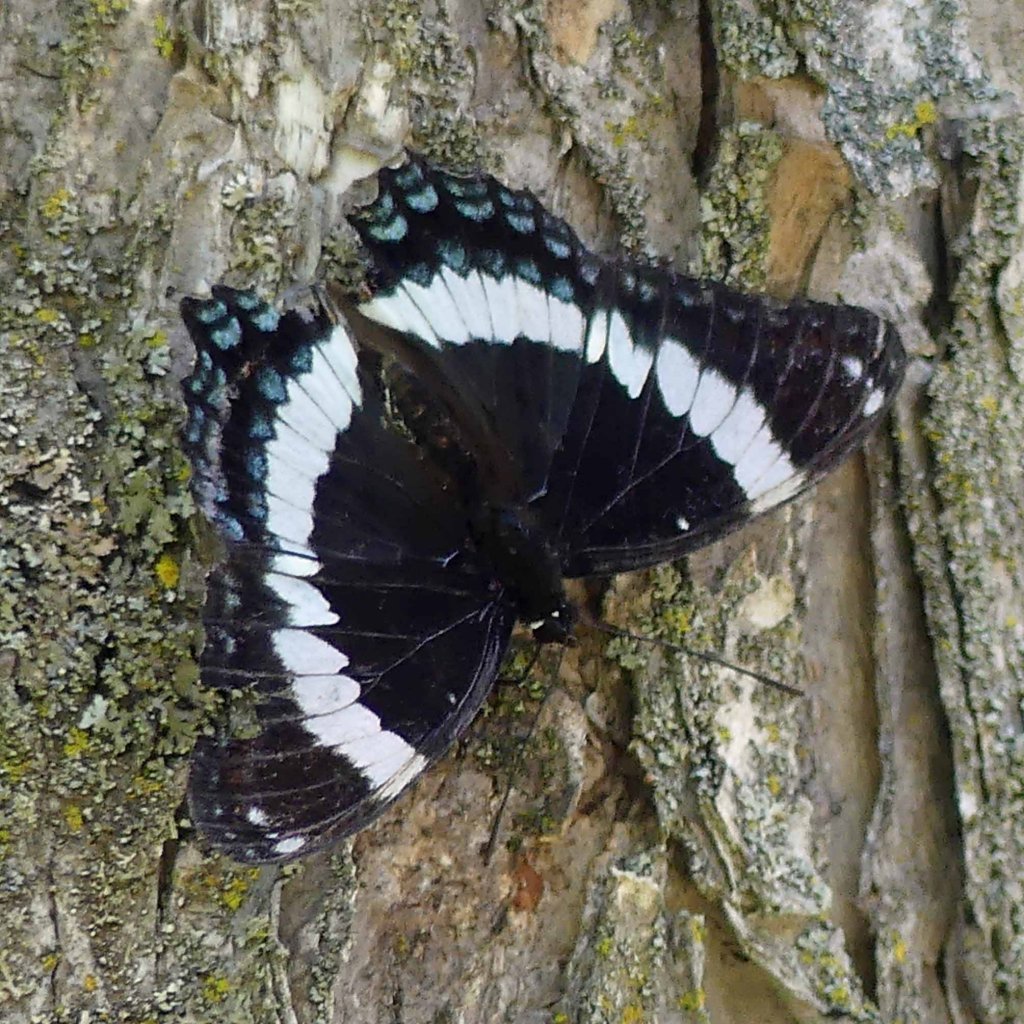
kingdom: Animalia
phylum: Arthropoda
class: Insecta
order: Lepidoptera
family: Nymphalidae
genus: Limenitis
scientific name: Limenitis arthemis
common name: Red-spotted Admiral
